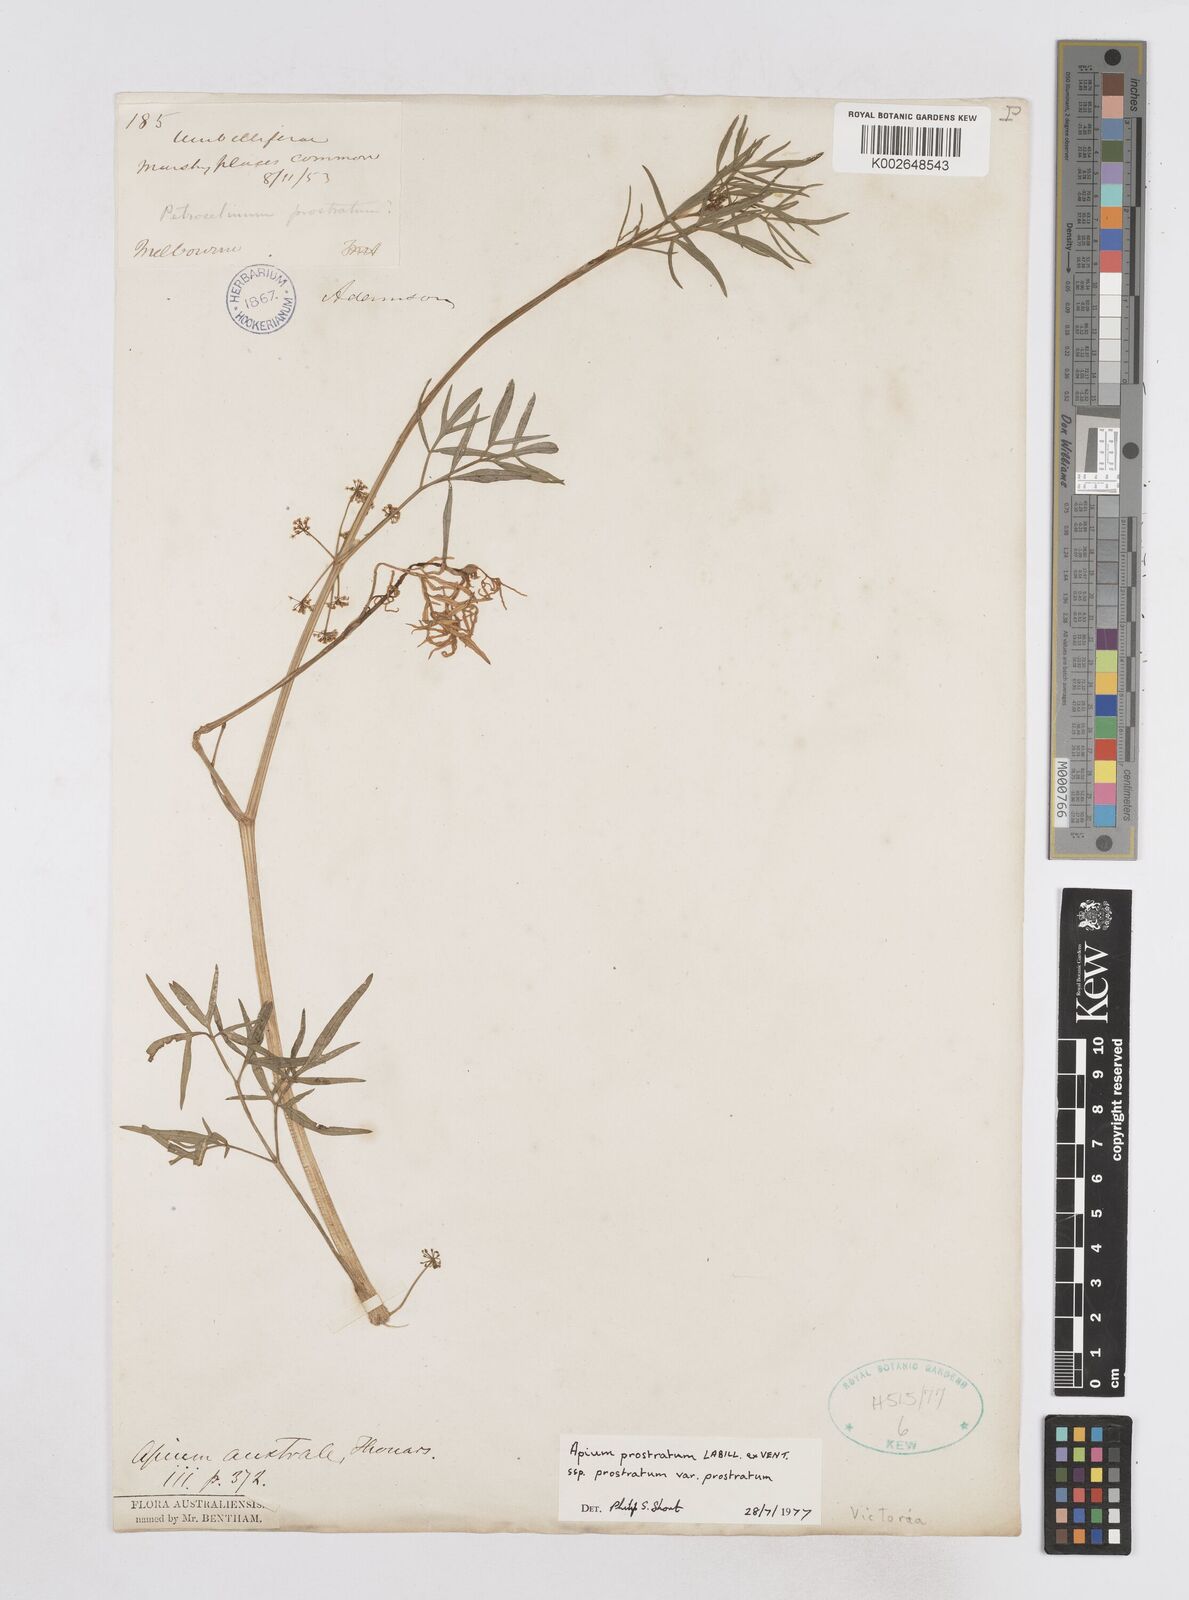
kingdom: Plantae
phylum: Tracheophyta
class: Magnoliopsida
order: Apiales
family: Apiaceae
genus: Apium
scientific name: Apium prostratum
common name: Prostrate marshwort
